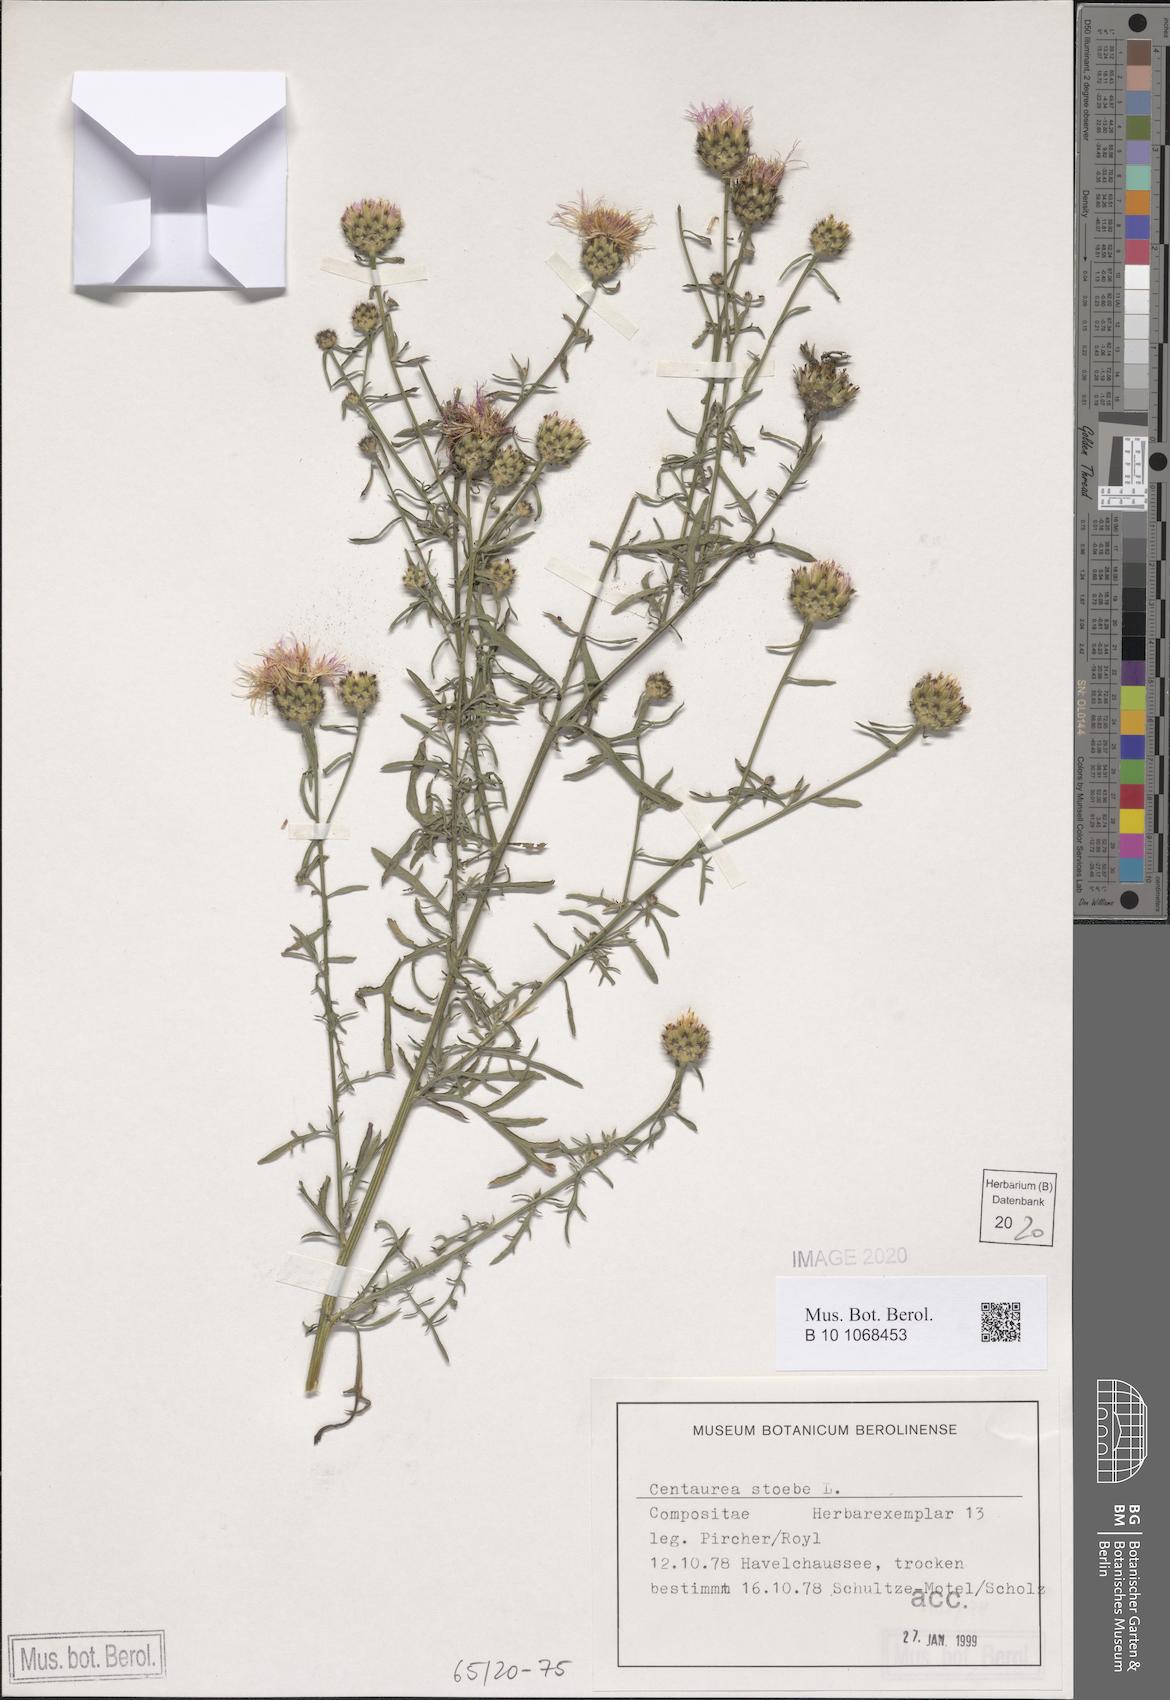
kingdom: Plantae
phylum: Tracheophyta
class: Magnoliopsida
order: Asterales
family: Asteraceae
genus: Centaurea
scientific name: Centaurea stoebe
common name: Spotted knapweed
